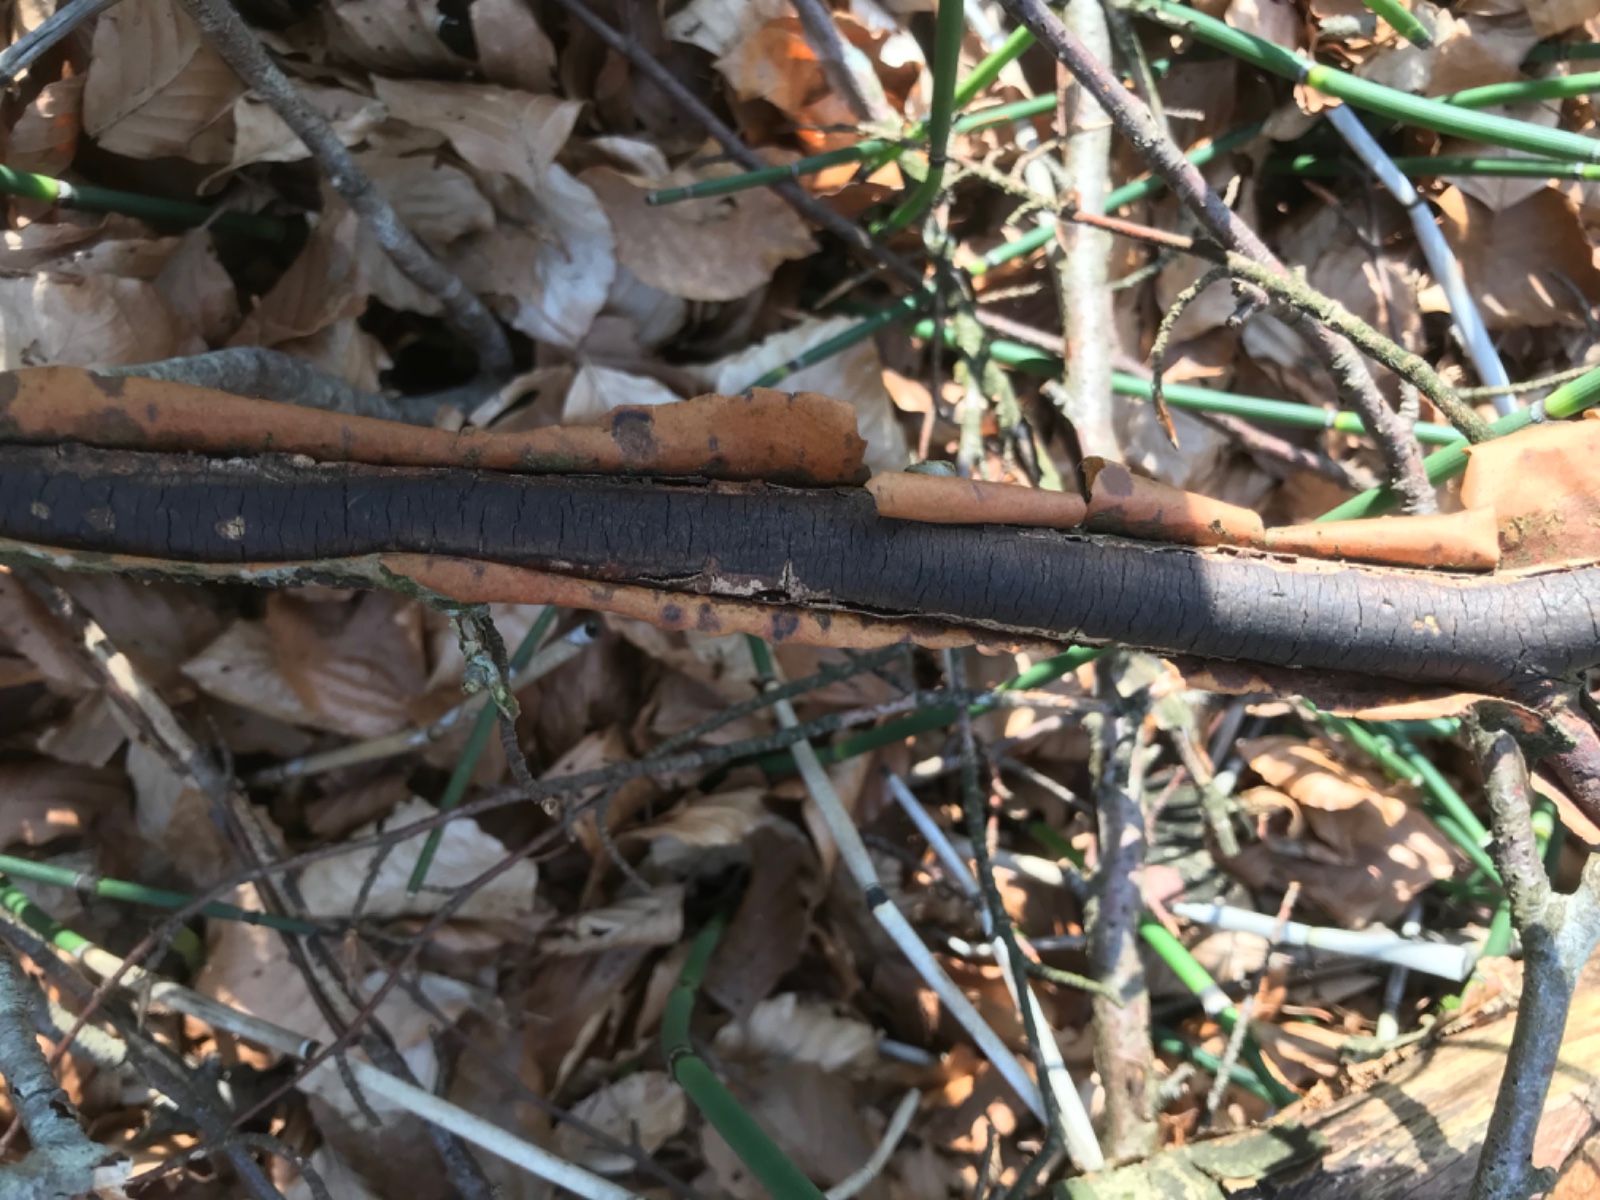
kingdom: Fungi
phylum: Ascomycota
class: Sordariomycetes
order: Xylariales
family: Diatrypaceae
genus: Diatrype
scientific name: Diatrype decorticata
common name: barksprænger-kulskorpe
